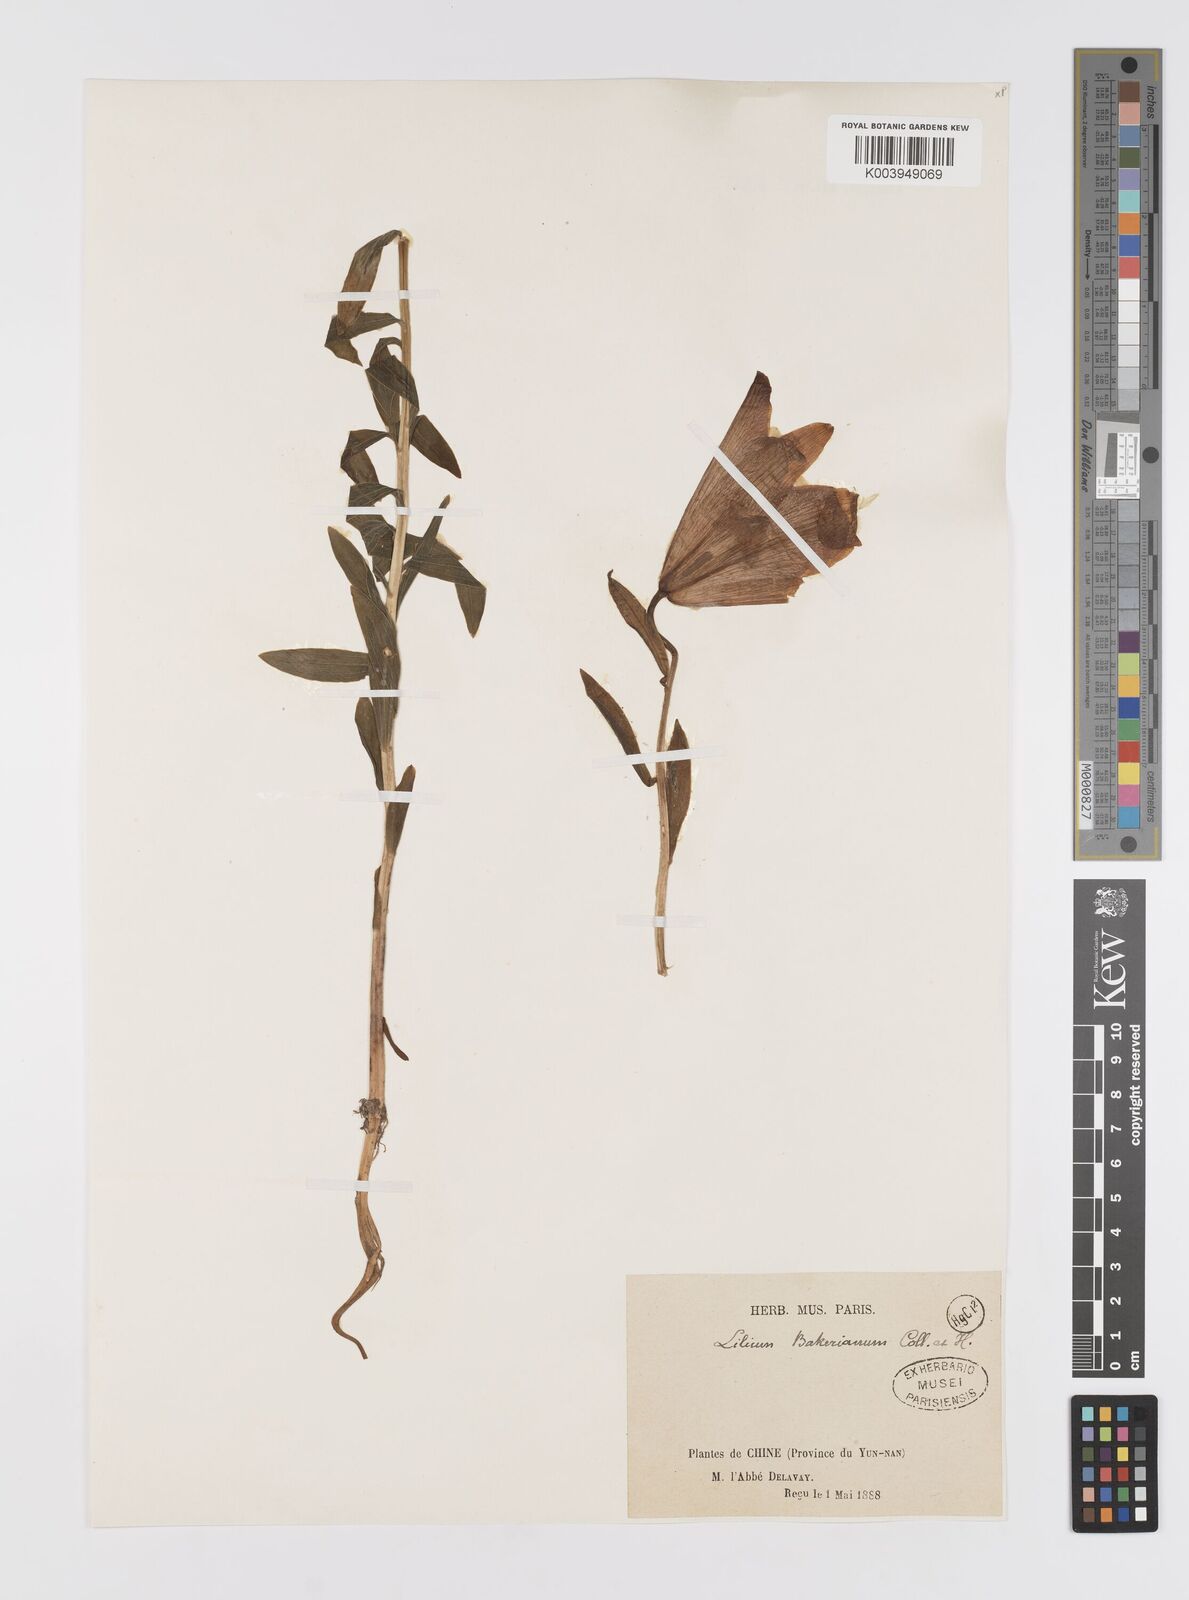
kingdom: Plantae
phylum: Tracheophyta
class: Liliopsida
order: Liliales
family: Liliaceae
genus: Lilium
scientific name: Lilium bakerianum
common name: Baker's lily
